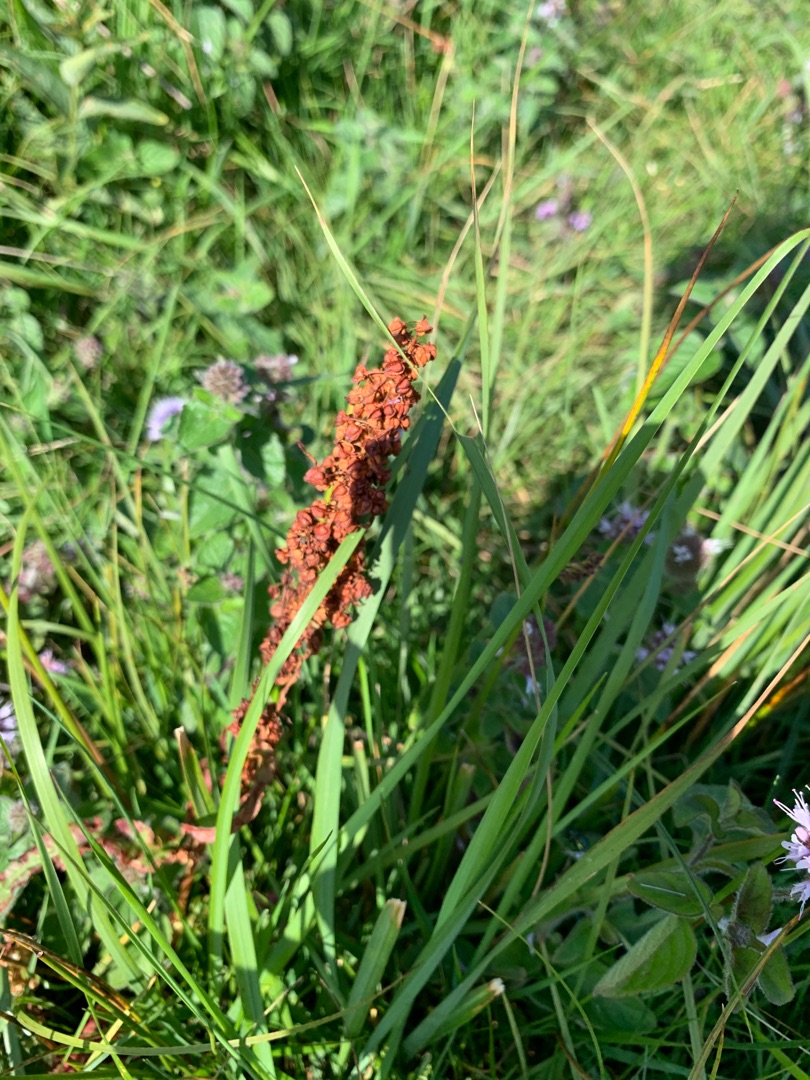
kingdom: Plantae
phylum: Tracheophyta
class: Magnoliopsida
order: Caryophyllales
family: Polygonaceae
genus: Rumex
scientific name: Rumex crispus
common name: Kruset skræppe
